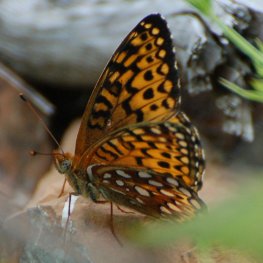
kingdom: Animalia
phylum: Arthropoda
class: Insecta
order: Lepidoptera
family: Nymphalidae
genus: Speyeria
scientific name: Speyeria atlantis
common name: Atlantis Fritillary
